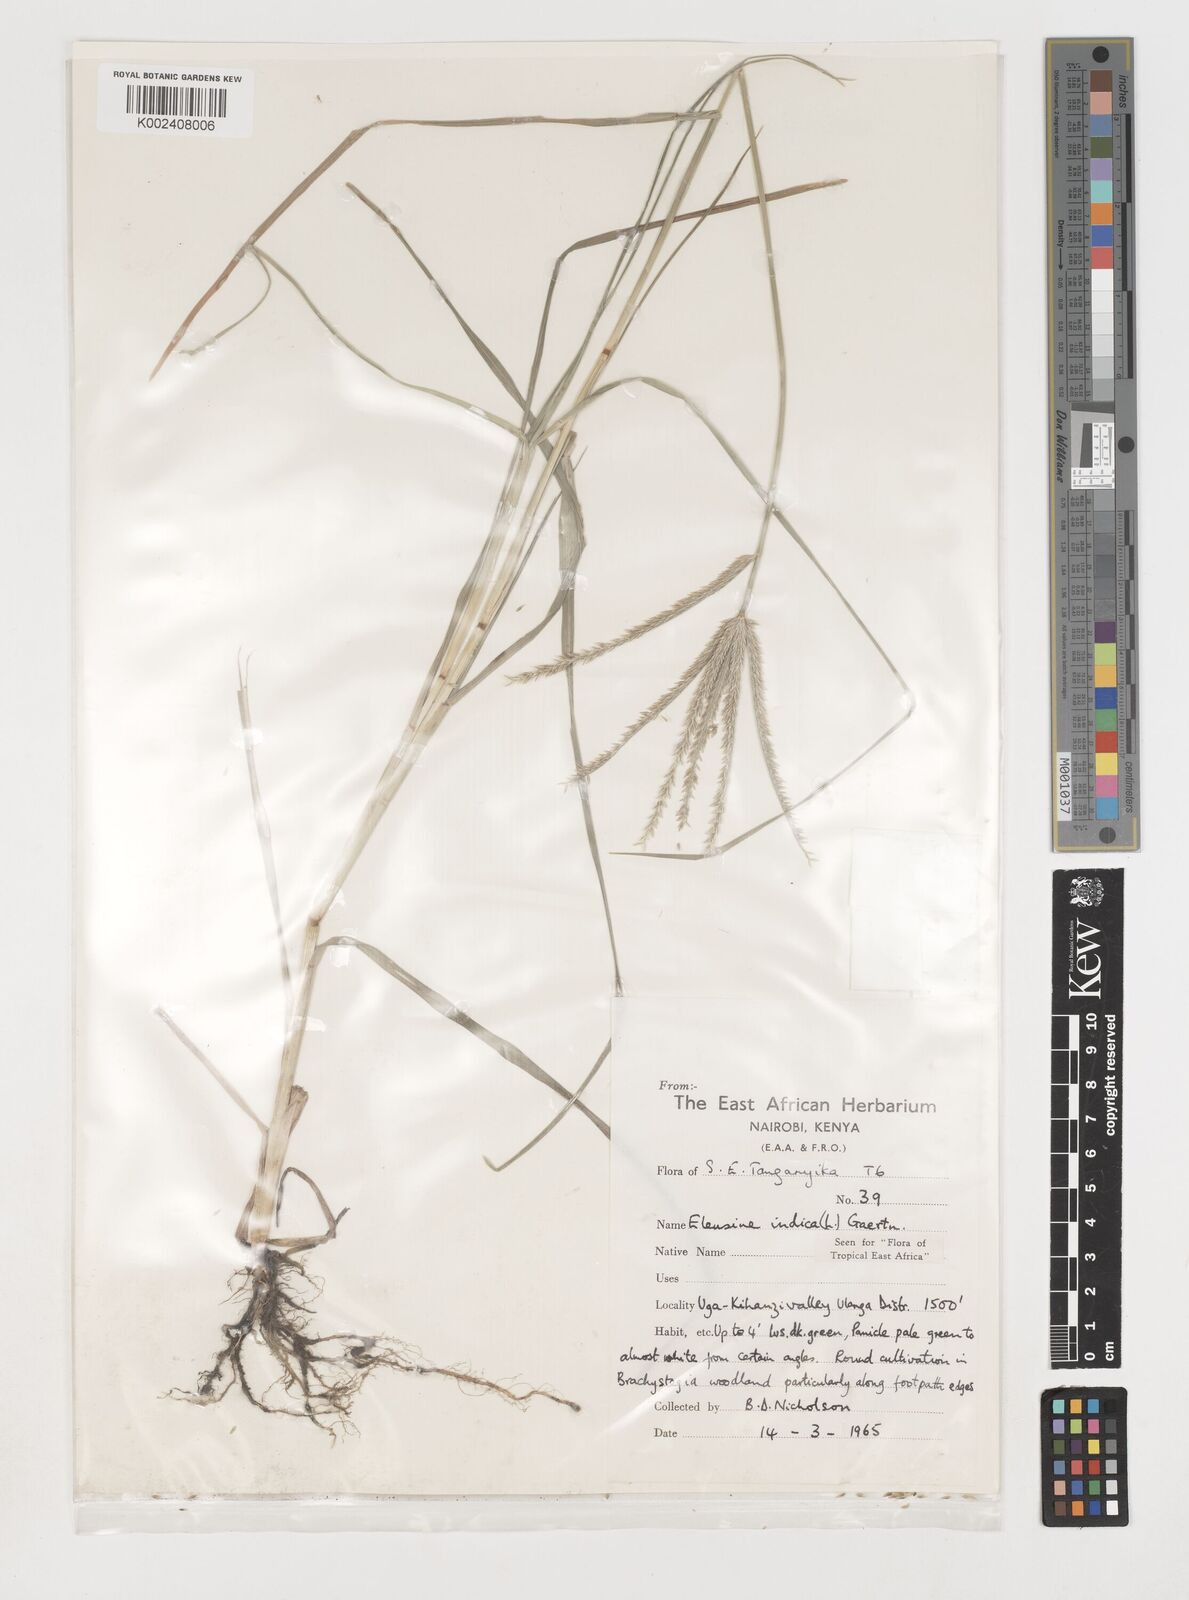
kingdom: Plantae
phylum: Tracheophyta
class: Liliopsida
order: Poales
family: Poaceae
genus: Eleusine
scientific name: Eleusine indica
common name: Yard-grass
